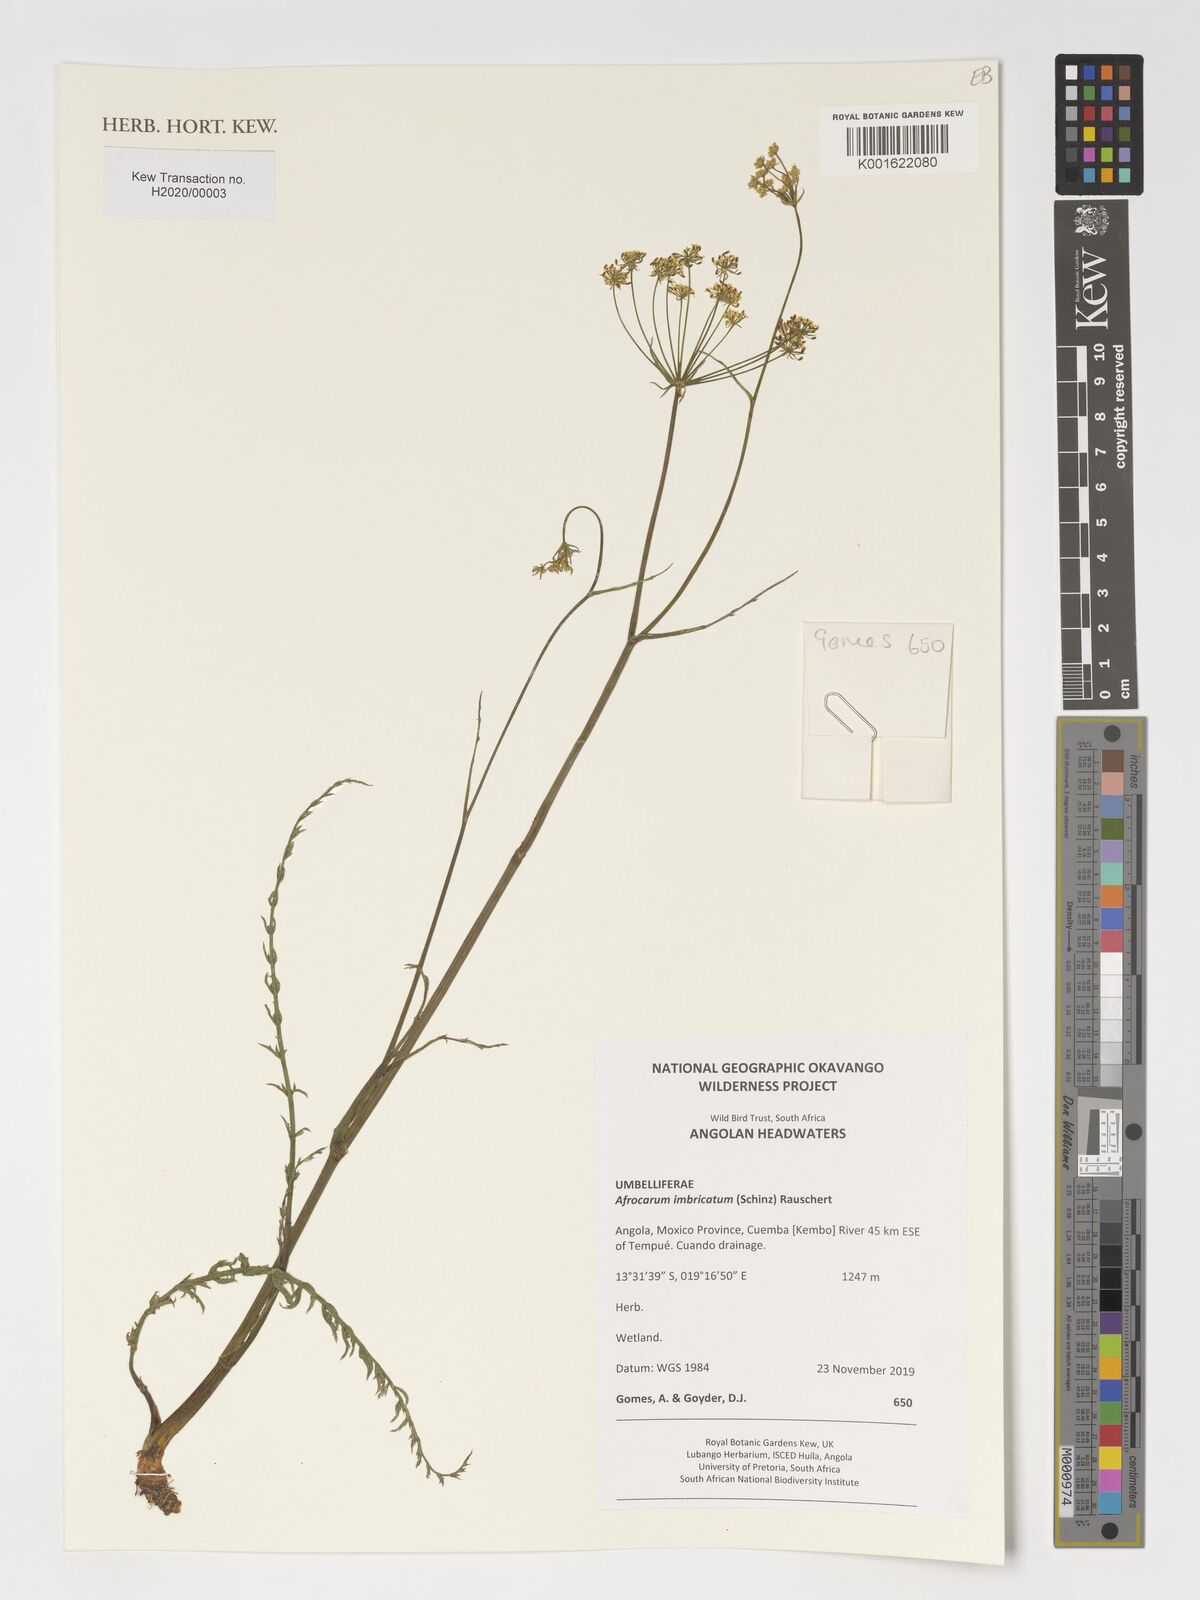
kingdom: Plantae
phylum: Tracheophyta
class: Magnoliopsida
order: Apiales
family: Apiaceae
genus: Berula
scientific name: Berula imbricata
